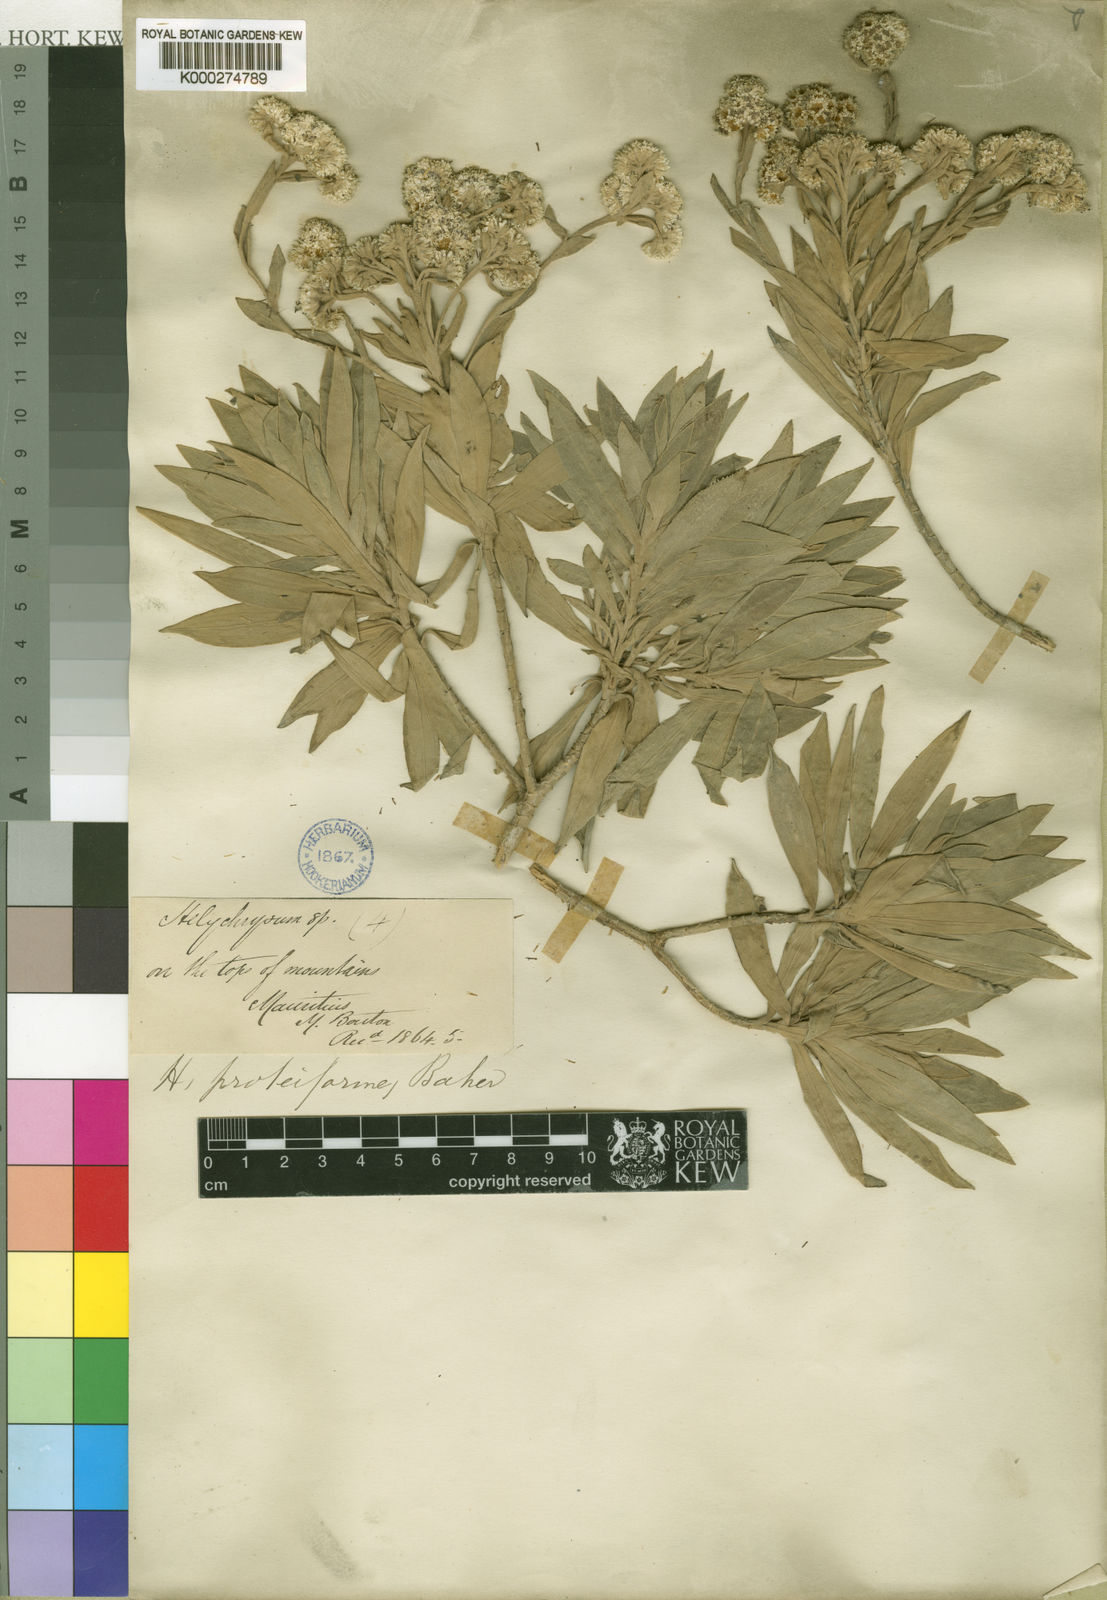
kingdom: Plantae
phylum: Tracheophyta
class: Magnoliopsida
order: Asterales
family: Asteraceae
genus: Helichrysum
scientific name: Helichrysum yuccifolium
